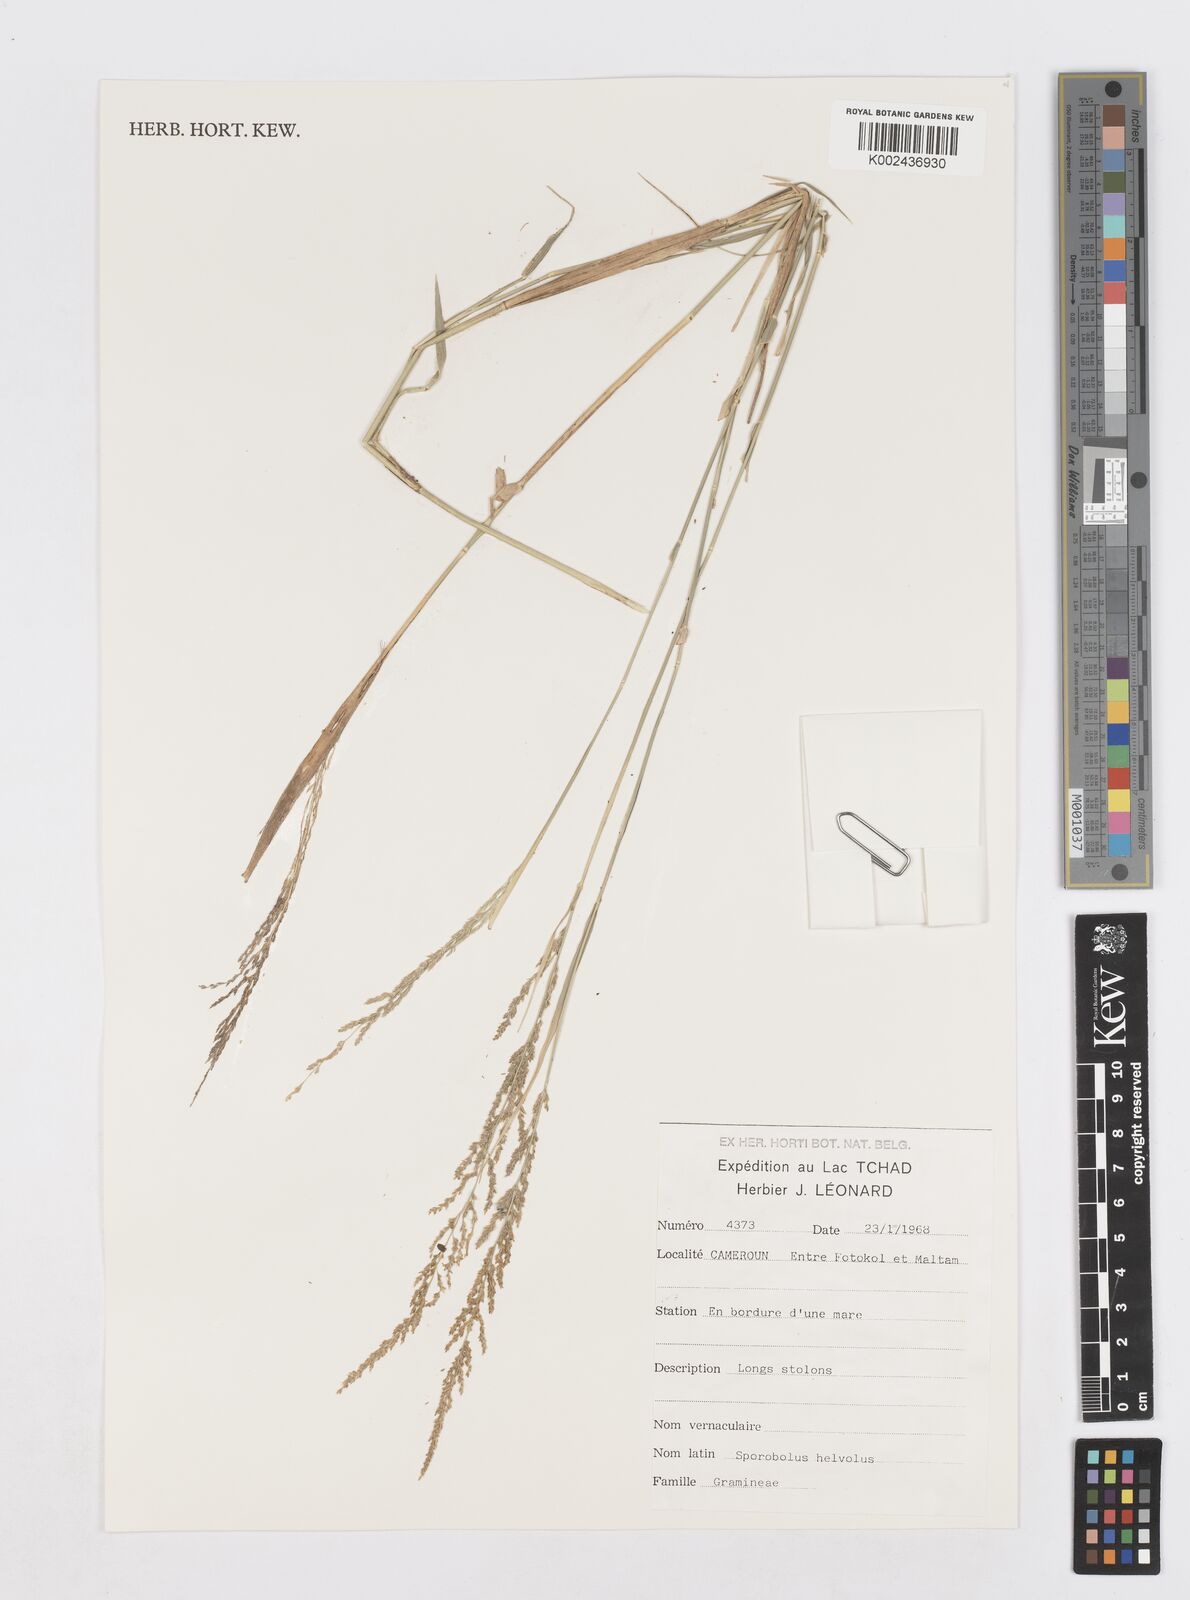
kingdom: Plantae
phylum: Tracheophyta
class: Liliopsida
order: Poales
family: Poaceae
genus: Sporobolus
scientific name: Sporobolus helvolus
